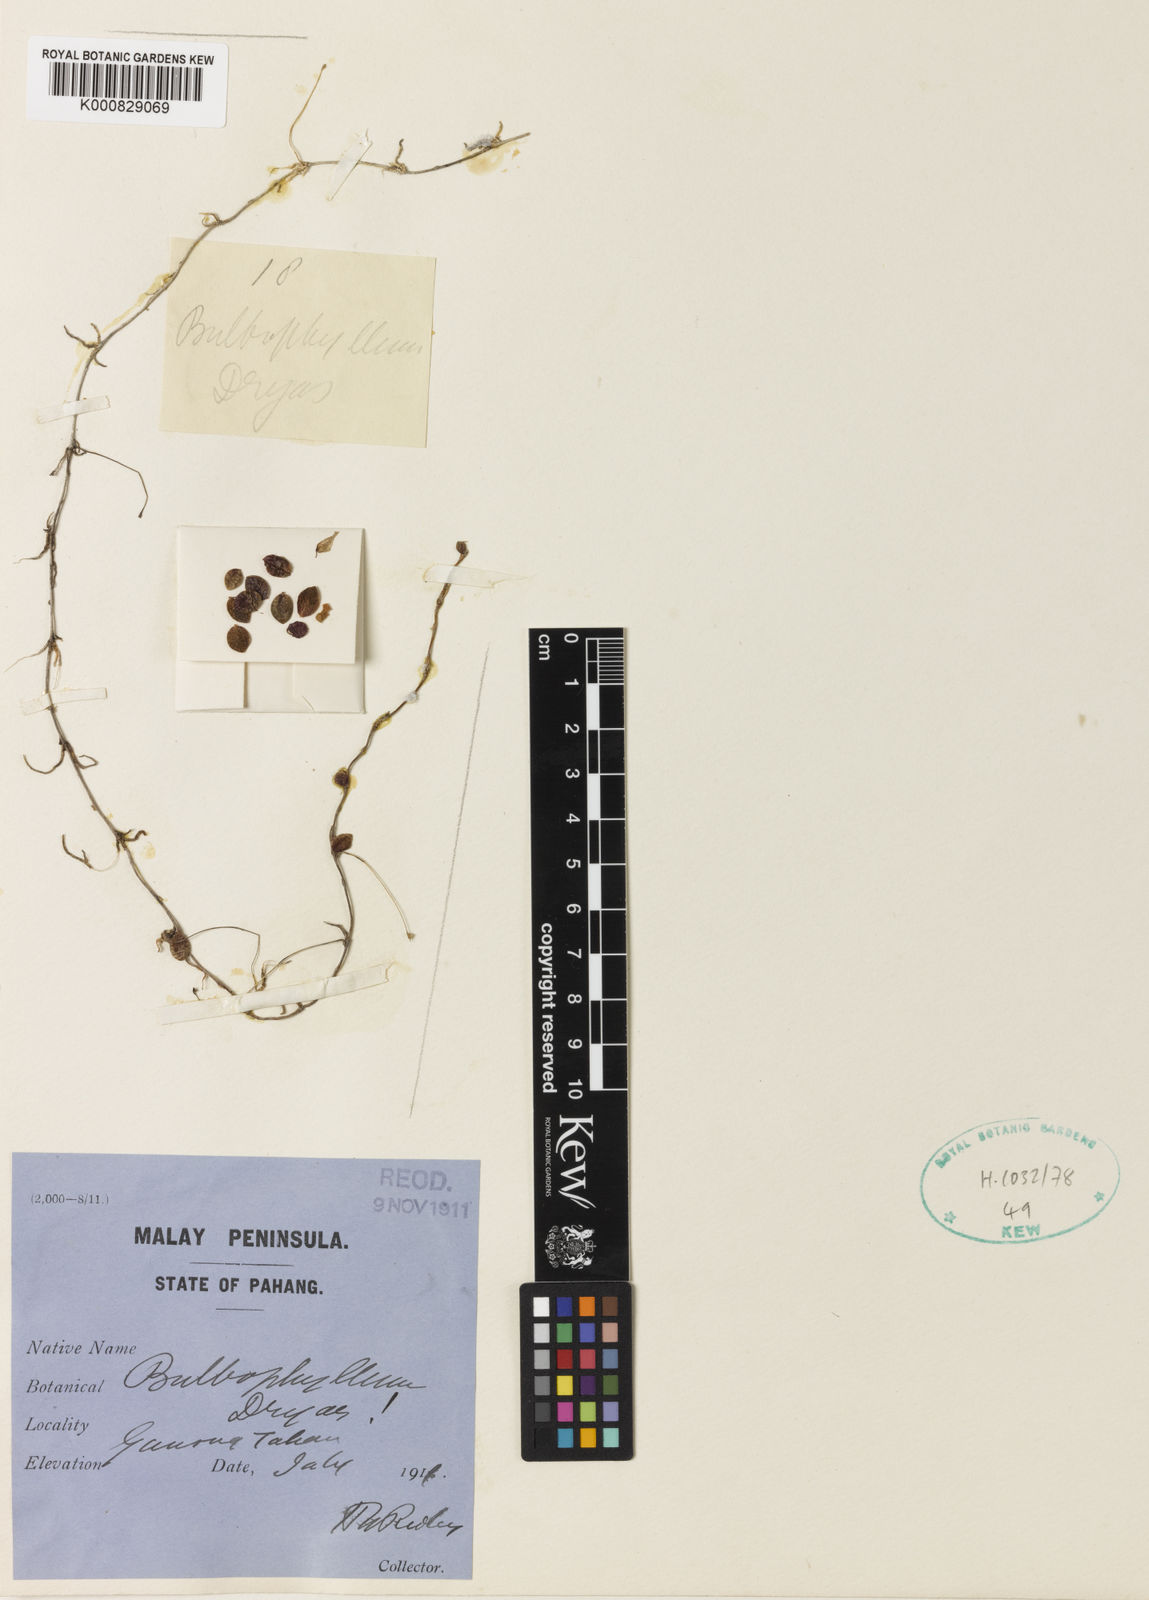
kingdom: Plantae
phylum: Tracheophyta
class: Liliopsida
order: Asparagales
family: Orchidaceae
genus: Bulbophyllum
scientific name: Bulbophyllum dryas
